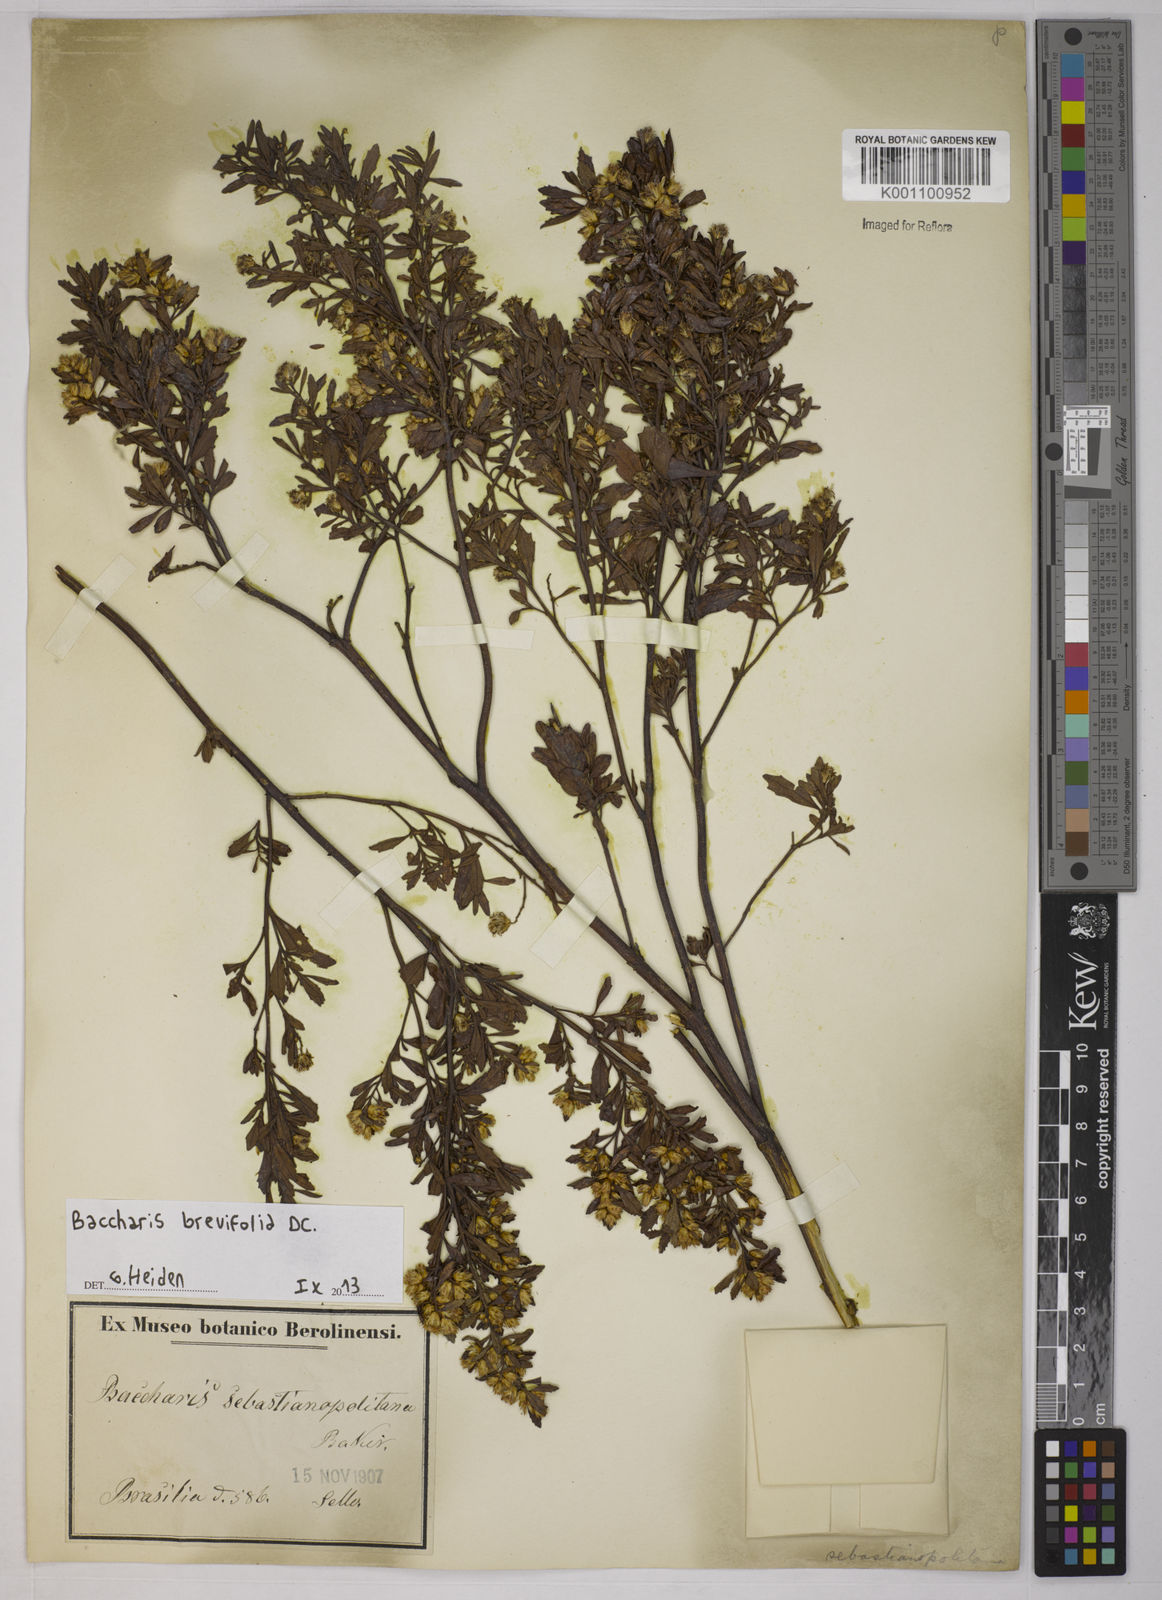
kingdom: Plantae
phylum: Tracheophyta
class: Magnoliopsida
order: Asterales
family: Asteraceae
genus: Baccharis
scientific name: Baccharis brevifolia
